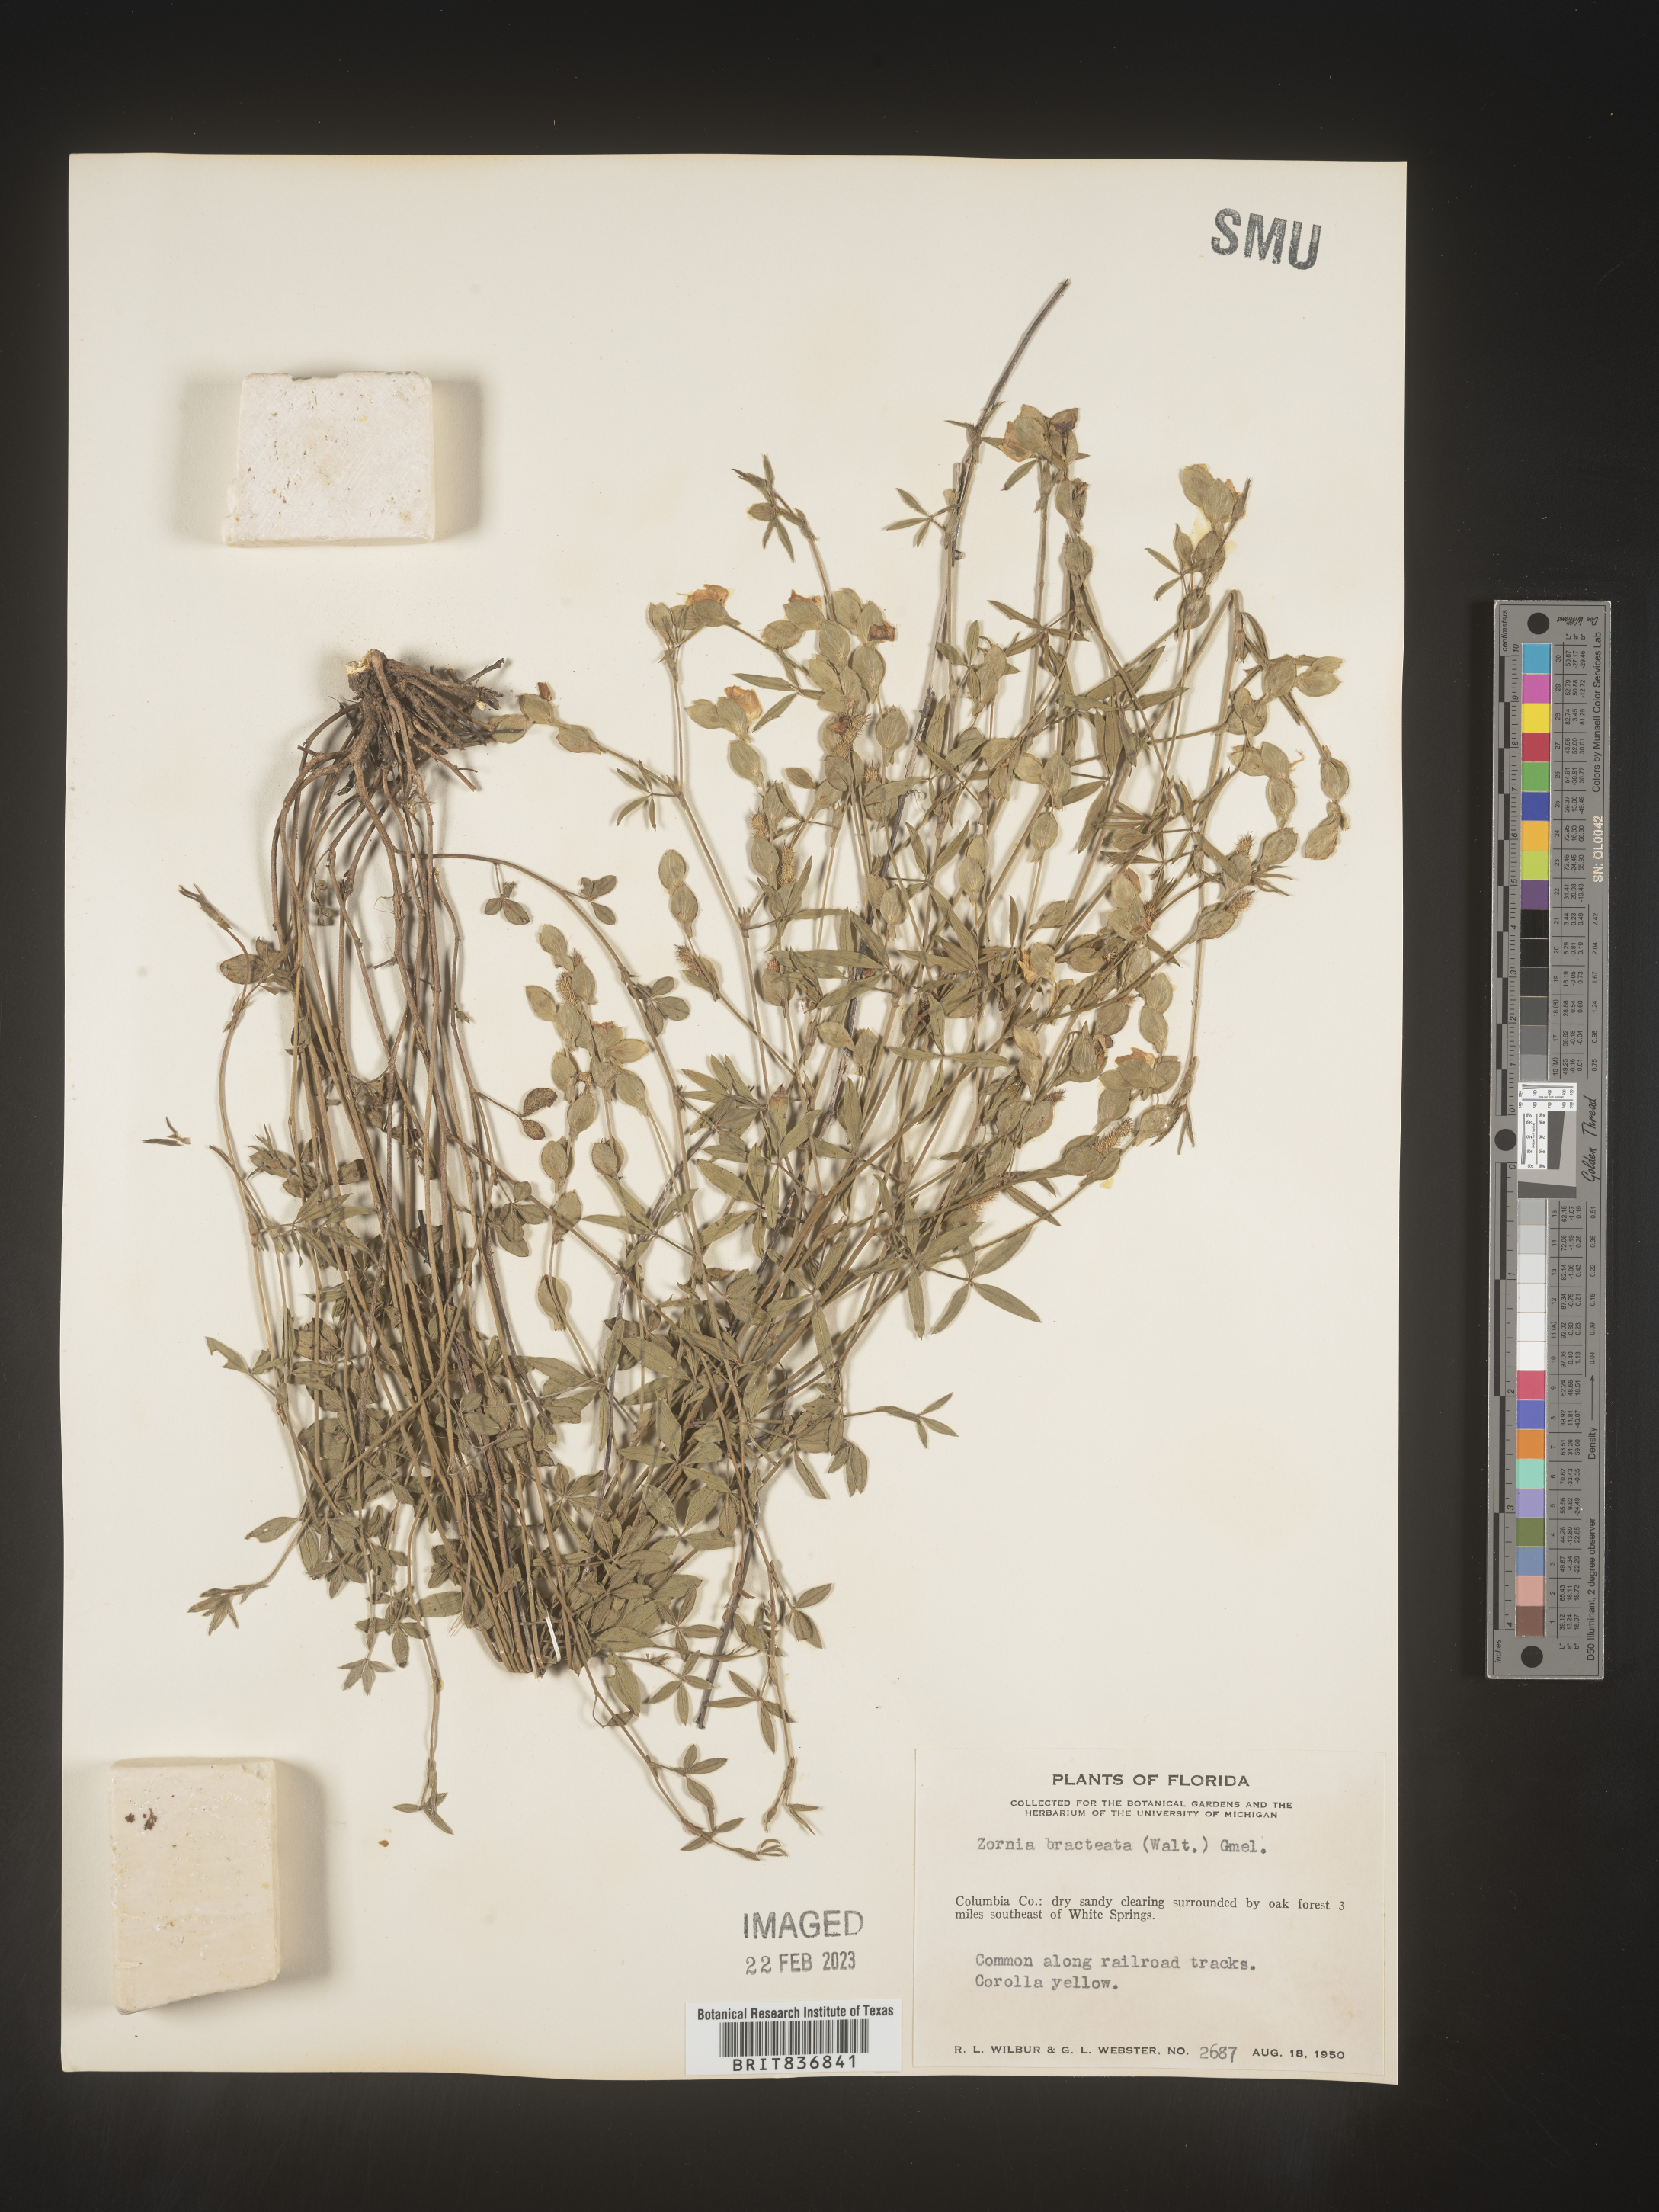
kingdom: Plantae
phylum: Tracheophyta
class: Magnoliopsida
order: Fabales
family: Fabaceae
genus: Zornia
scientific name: Zornia
